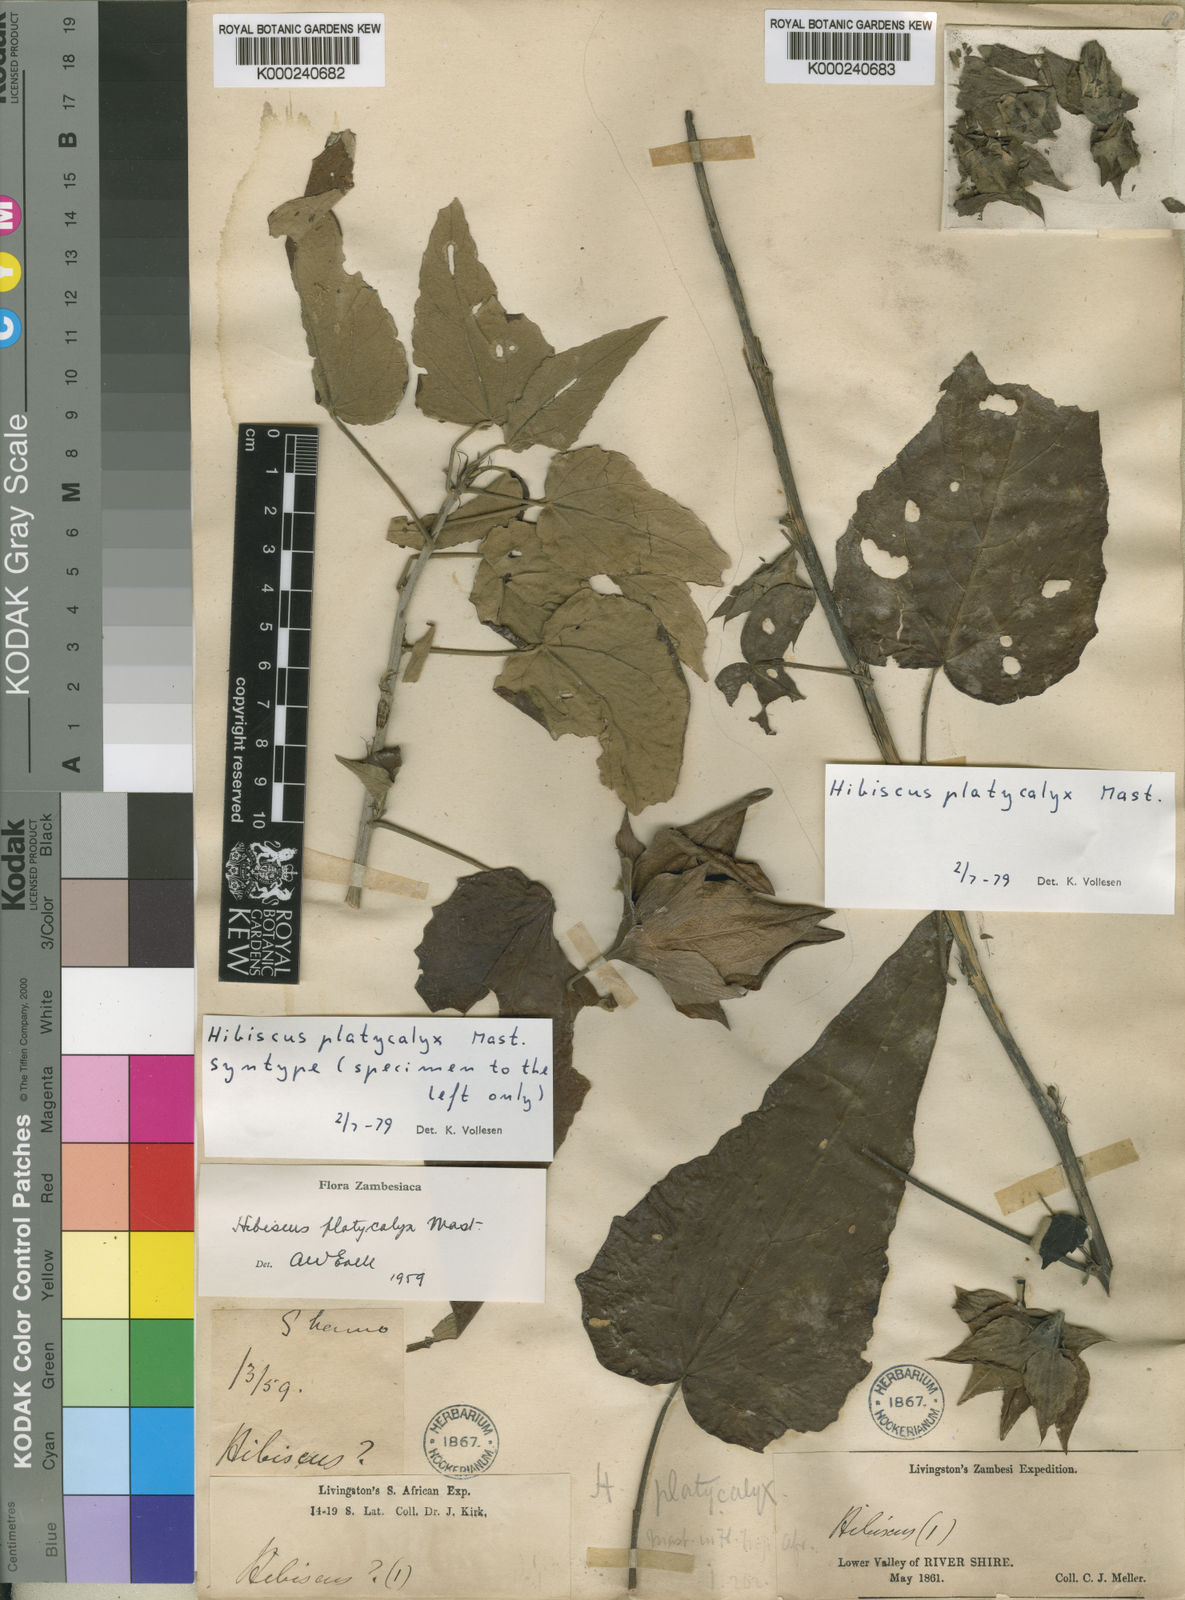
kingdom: Plantae
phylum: Tracheophyta
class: Magnoliopsida
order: Malvales
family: Malvaceae
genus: Hibiscus
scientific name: Hibiscus platycalyx
